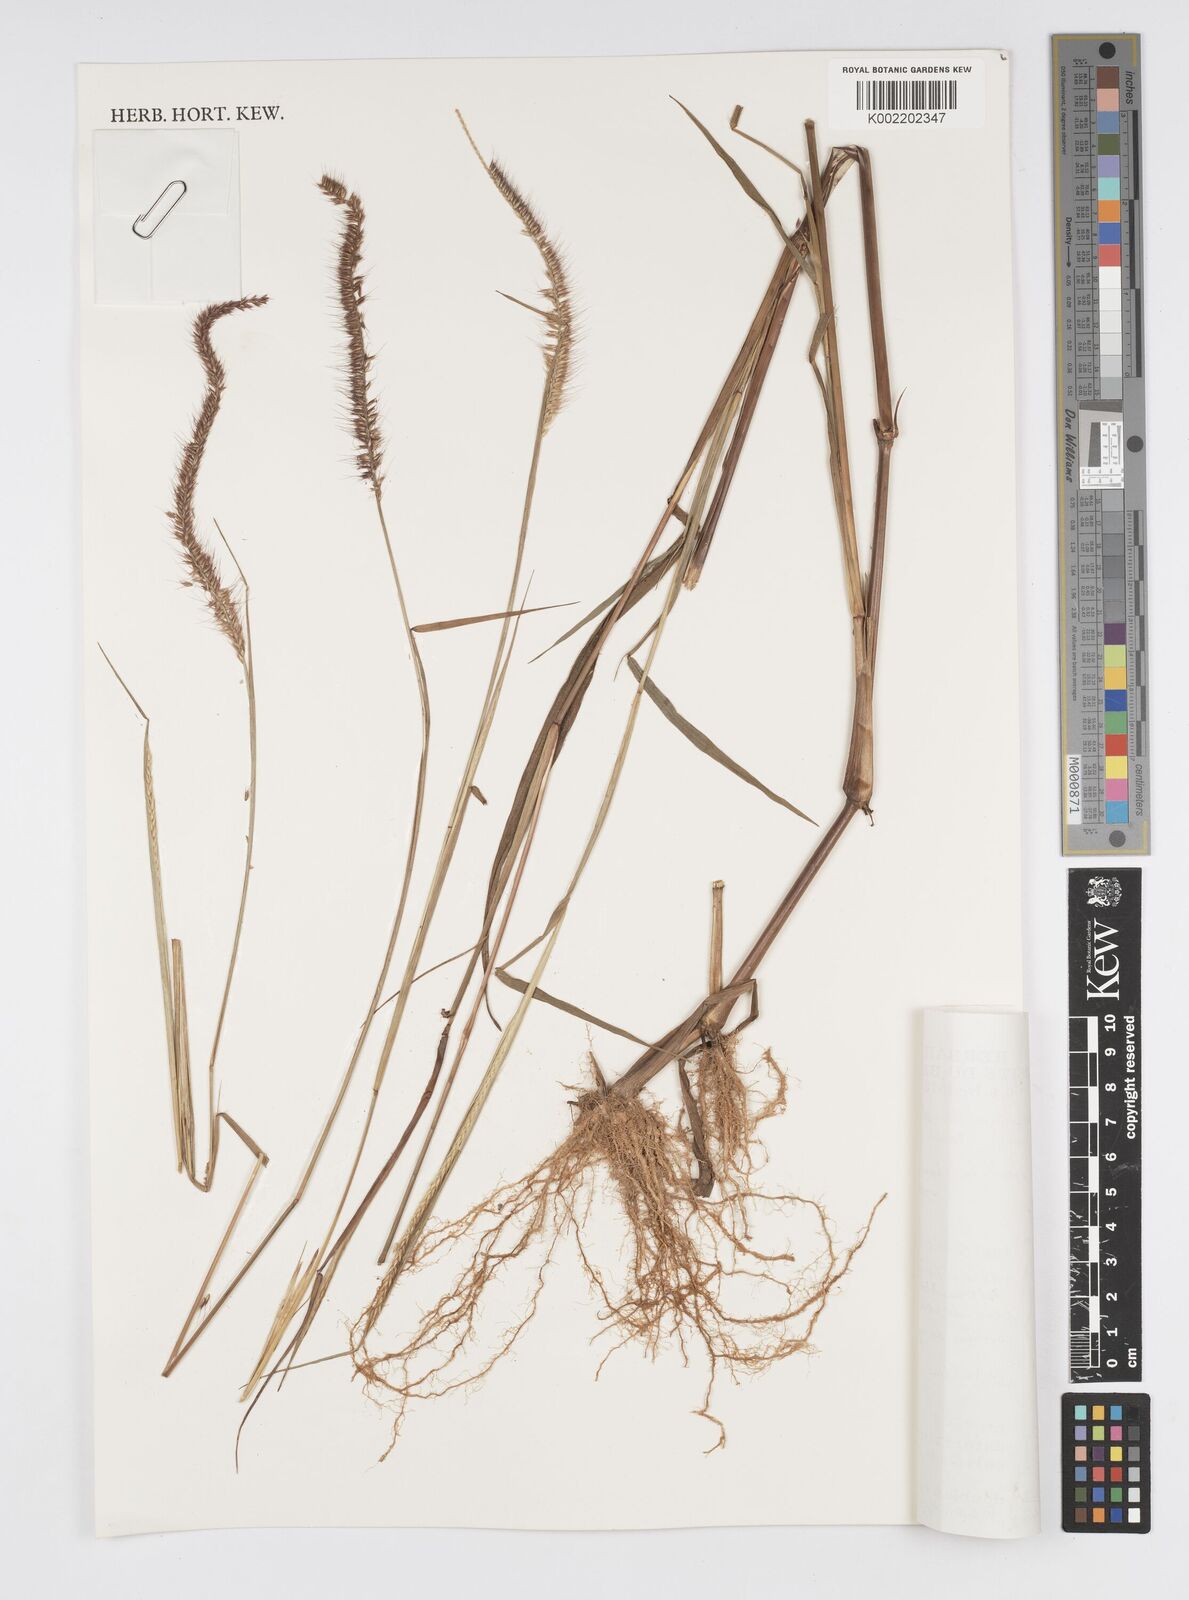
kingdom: Plantae
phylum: Tracheophyta
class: Liliopsida
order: Poales
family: Poaceae
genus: Cenchrus
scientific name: Cenchrus hordeoides
